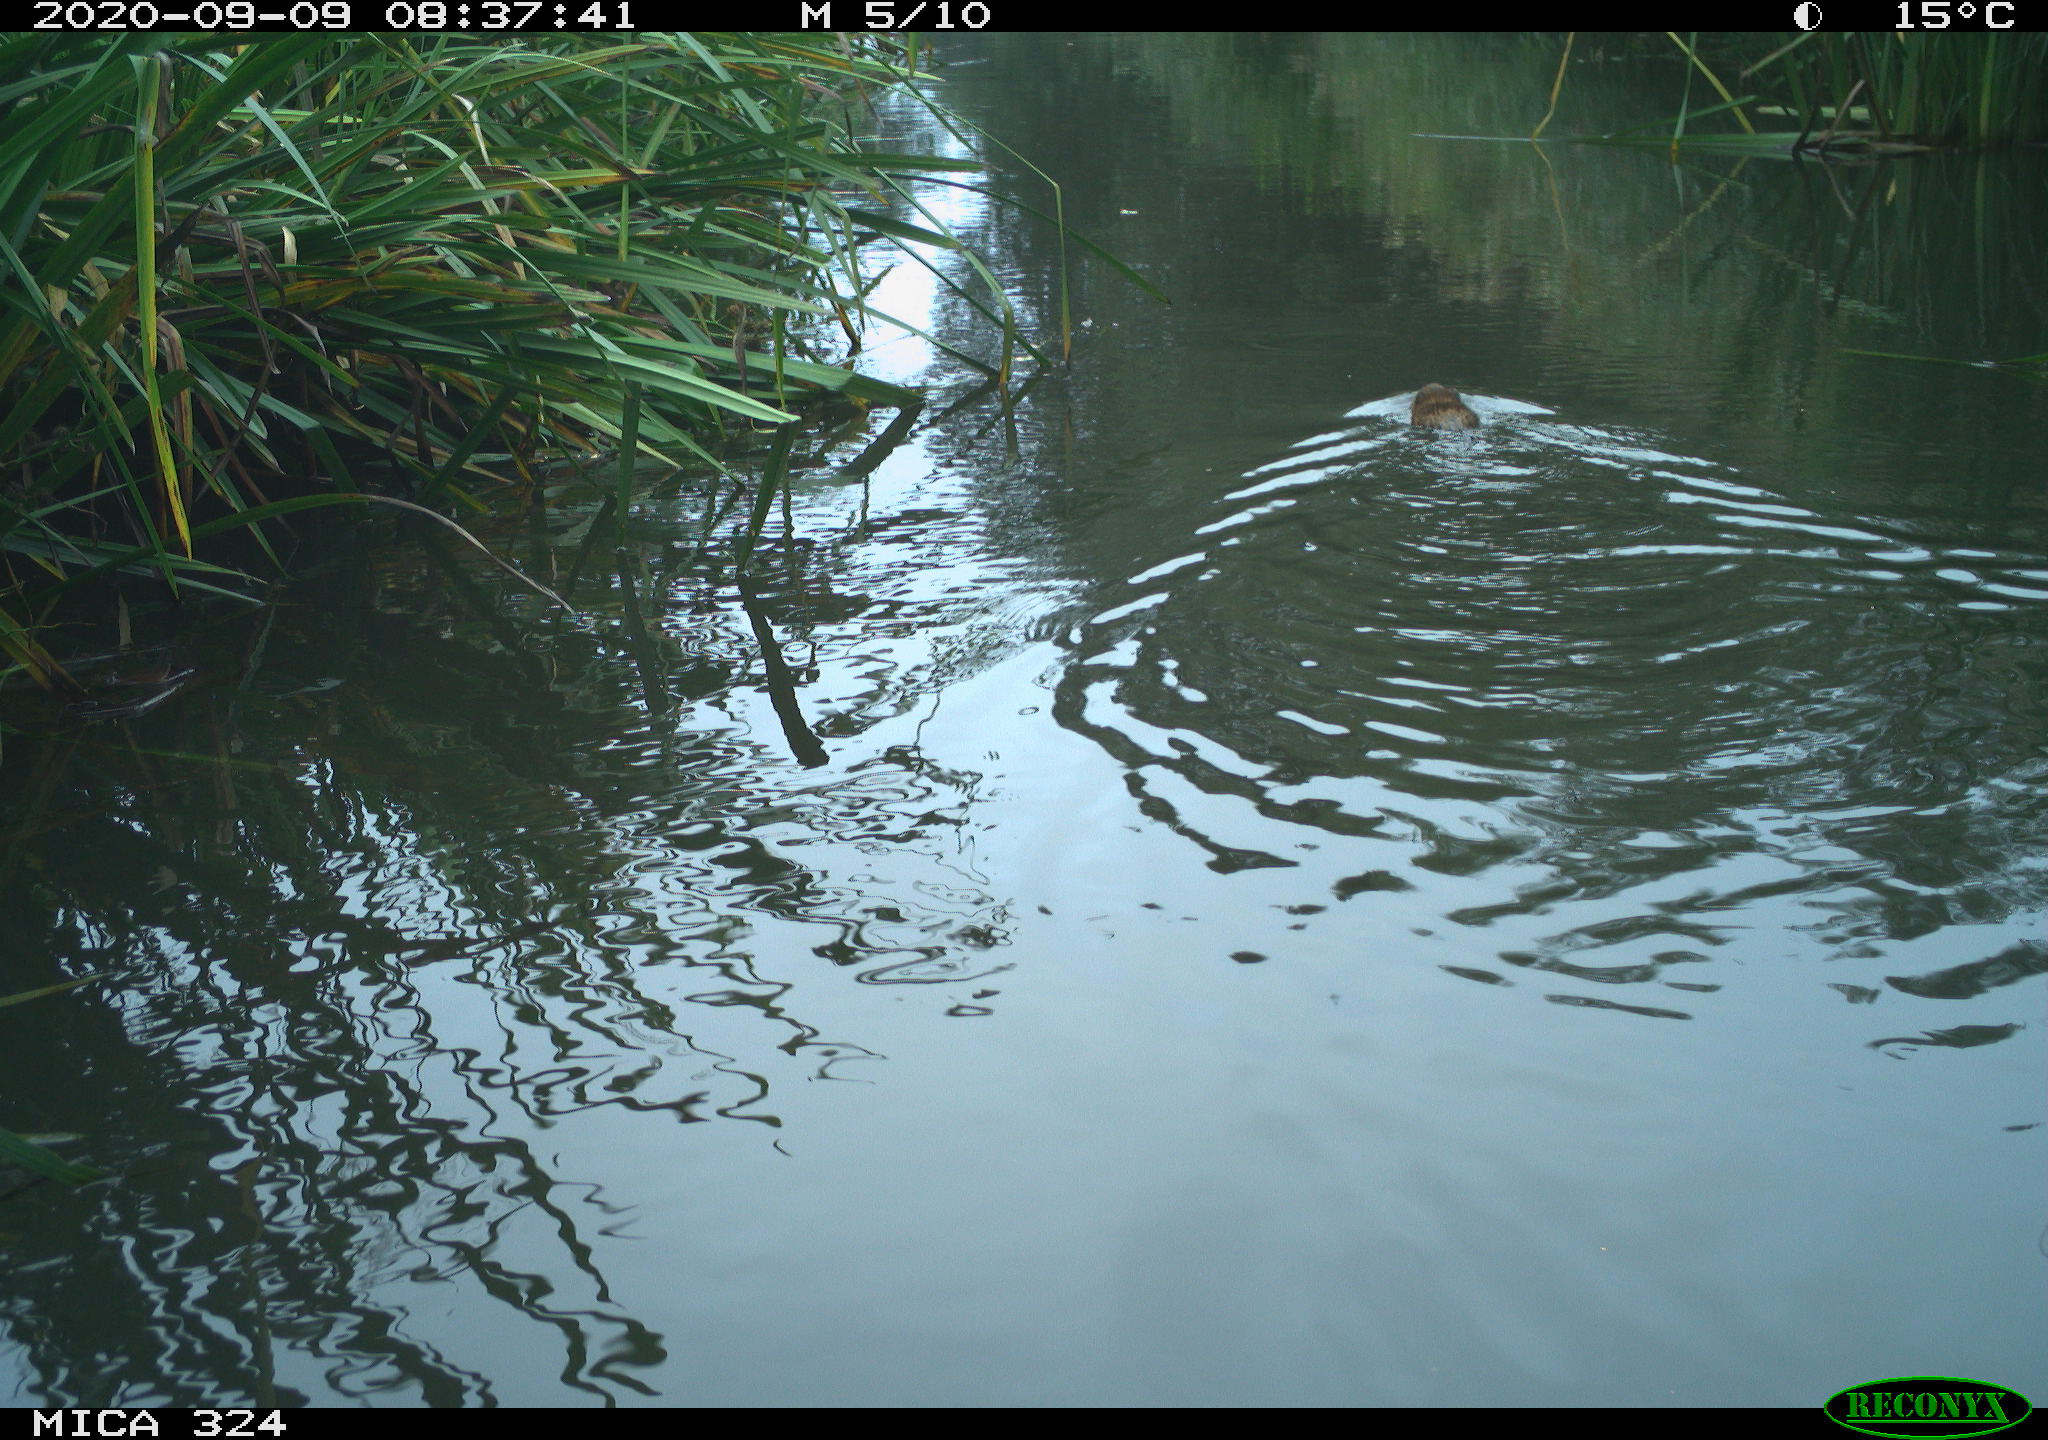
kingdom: Animalia
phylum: Chordata
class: Mammalia
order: Rodentia
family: Cricetidae
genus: Ondatra
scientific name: Ondatra zibethicus
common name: Muskrat
